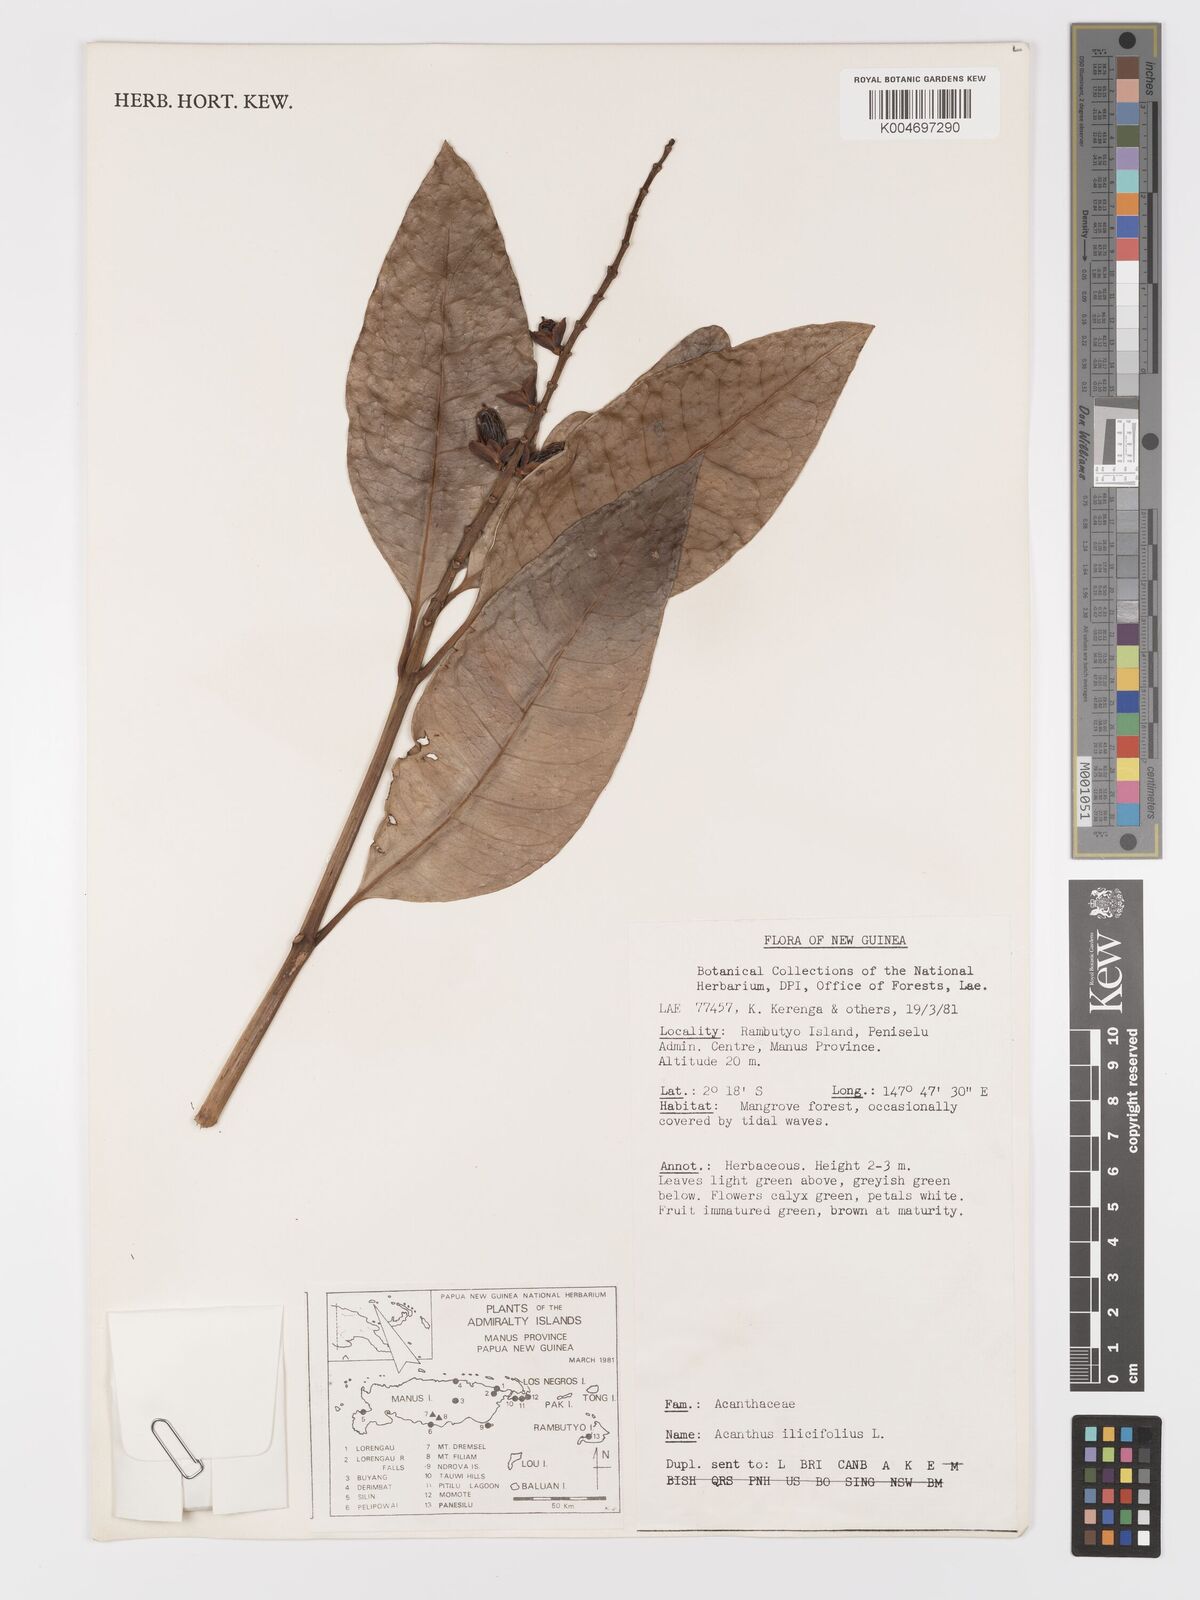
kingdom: Plantae
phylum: Tracheophyta
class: Magnoliopsida
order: Lamiales
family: Acanthaceae
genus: Acanthus
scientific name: Acanthus ilicifolius
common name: Holy mangrove
